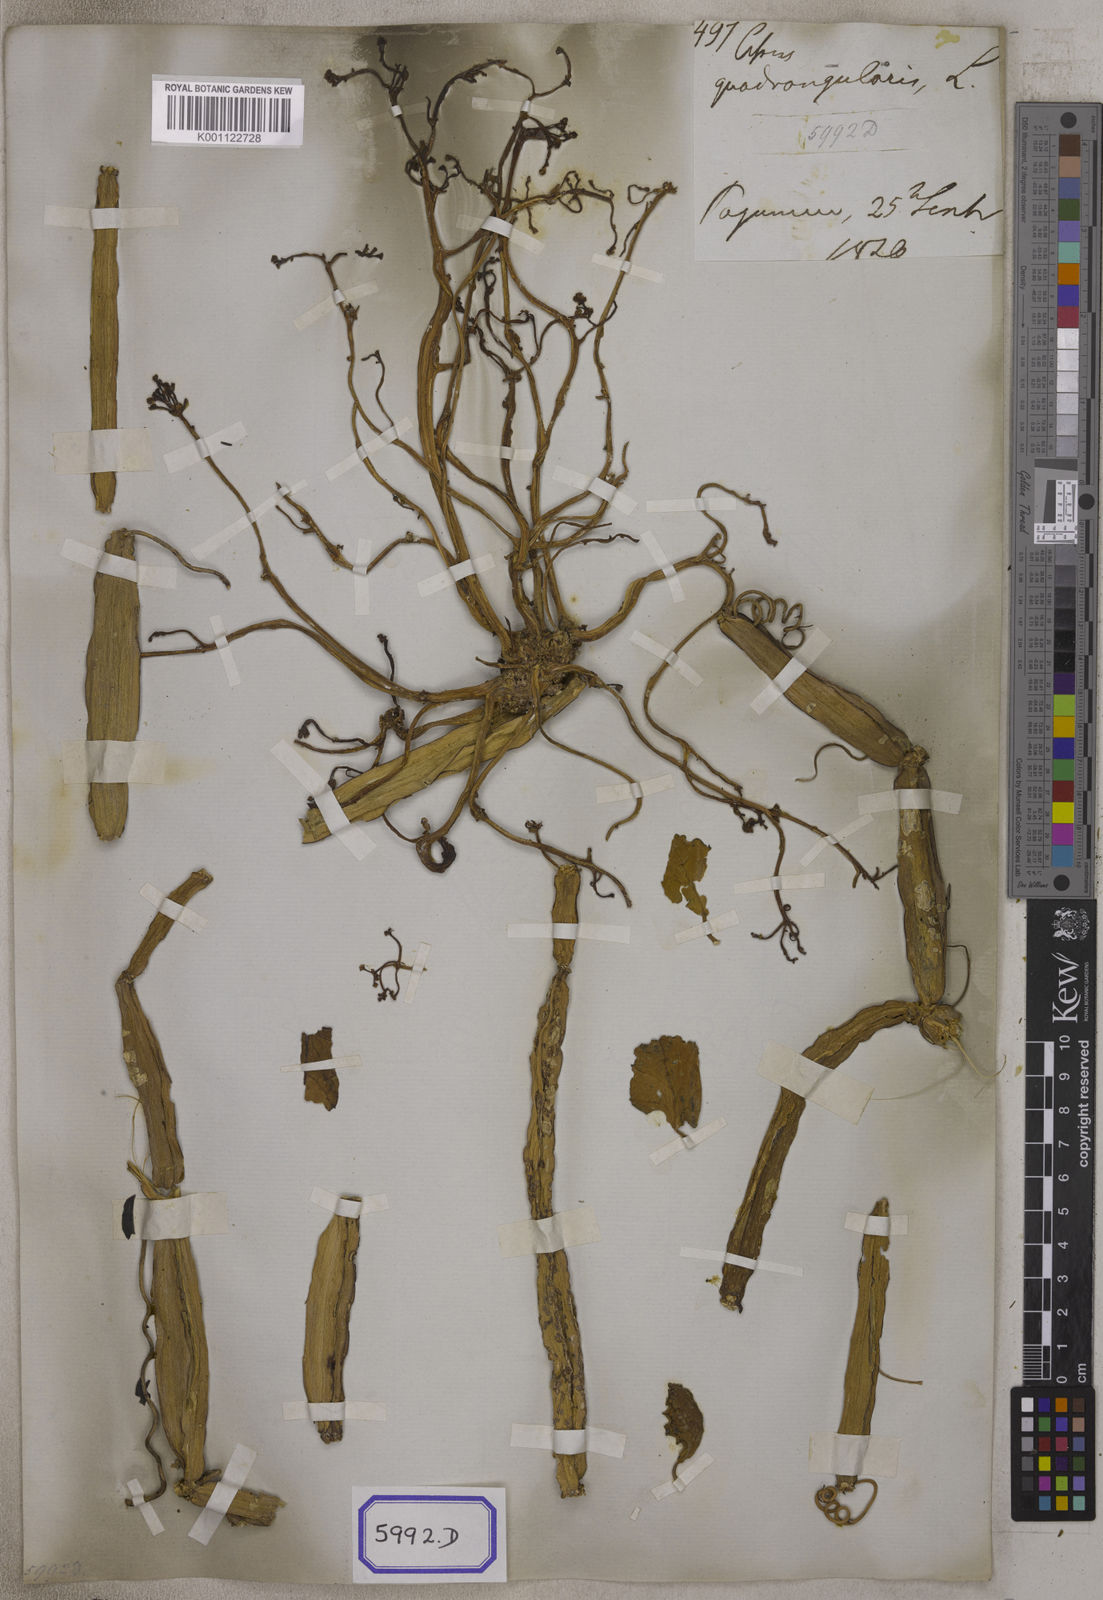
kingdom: Plantae
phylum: Tracheophyta
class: Magnoliopsida
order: Vitales
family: Vitaceae
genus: Vitis
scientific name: Vitis
